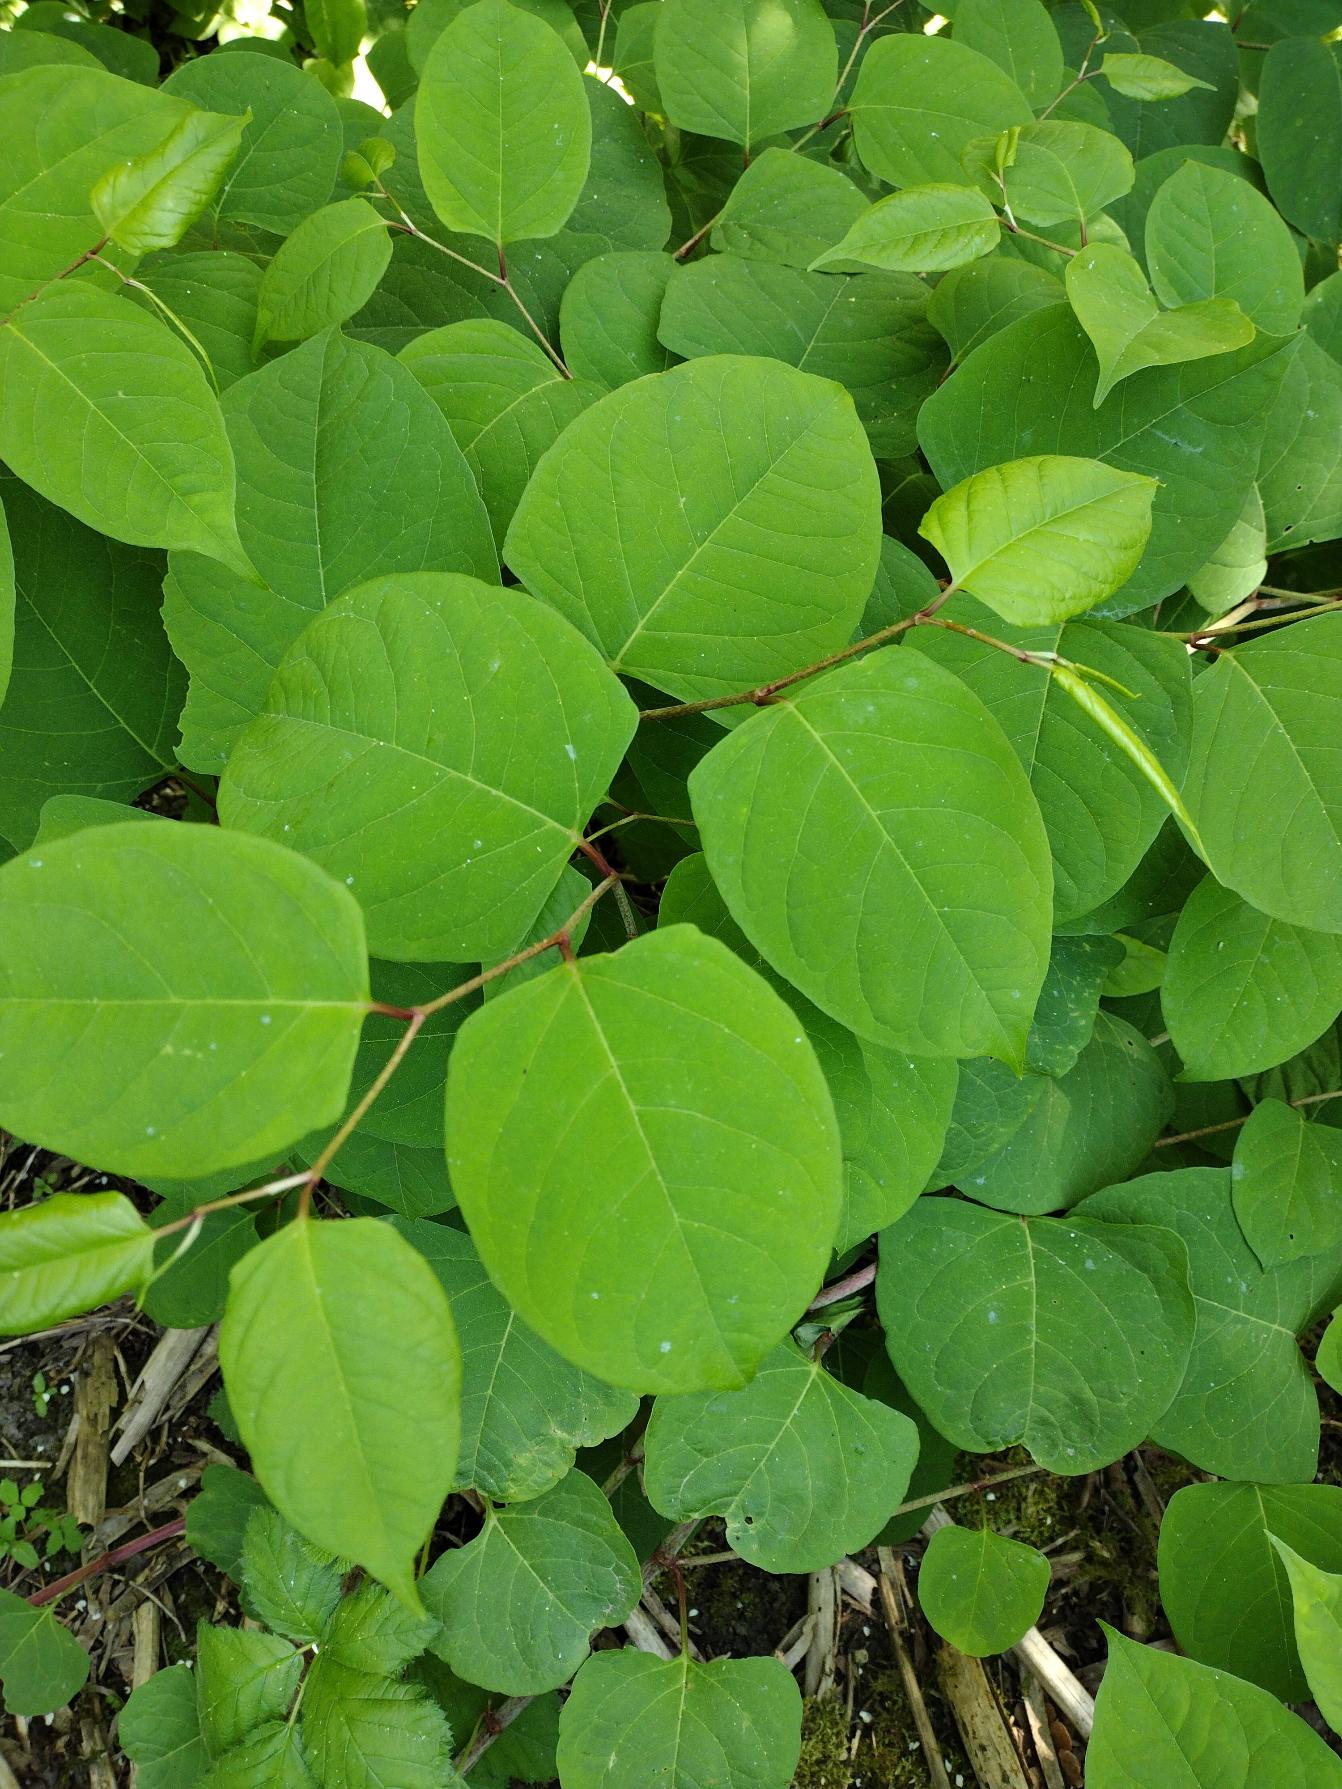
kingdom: Plantae
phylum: Tracheophyta
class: Magnoliopsida
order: Caryophyllales
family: Polygonaceae
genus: Reynoutria
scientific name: Reynoutria japonica
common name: Japan-pileurt
